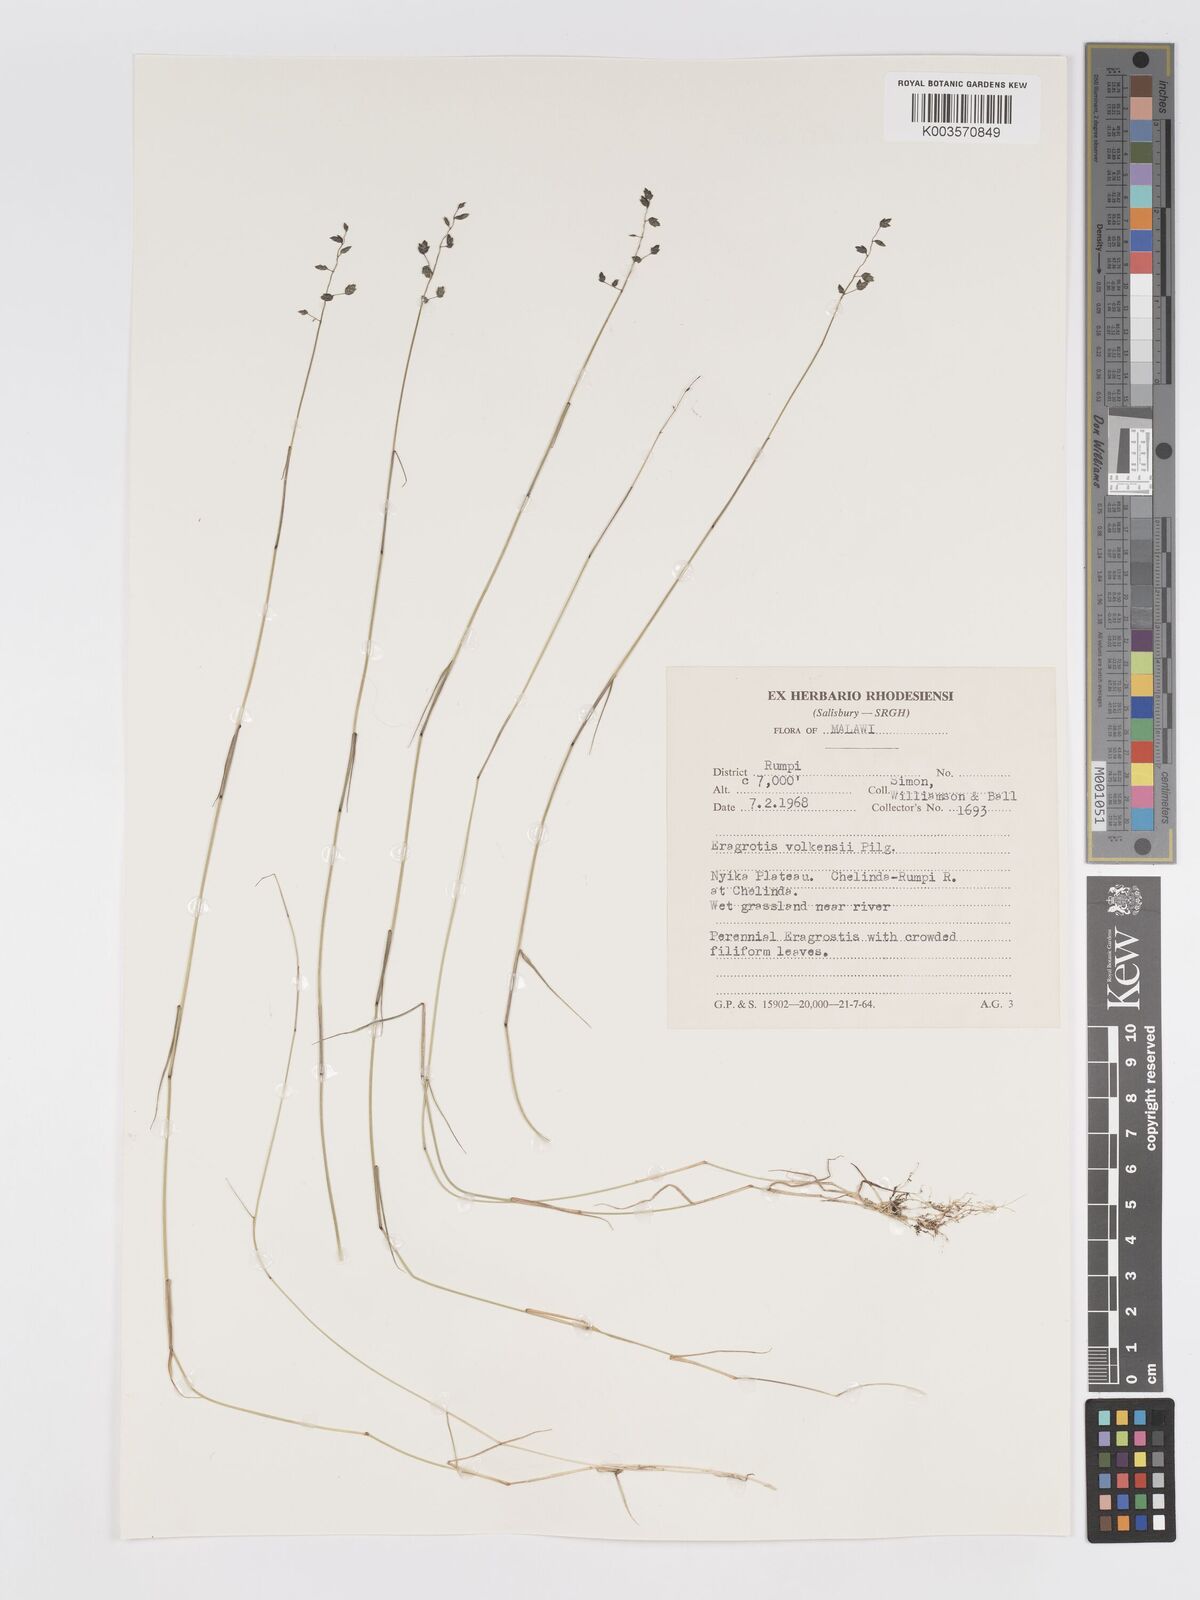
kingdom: Plantae
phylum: Tracheophyta
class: Liliopsida
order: Poales
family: Poaceae
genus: Eragrostis
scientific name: Eragrostis volkensii
